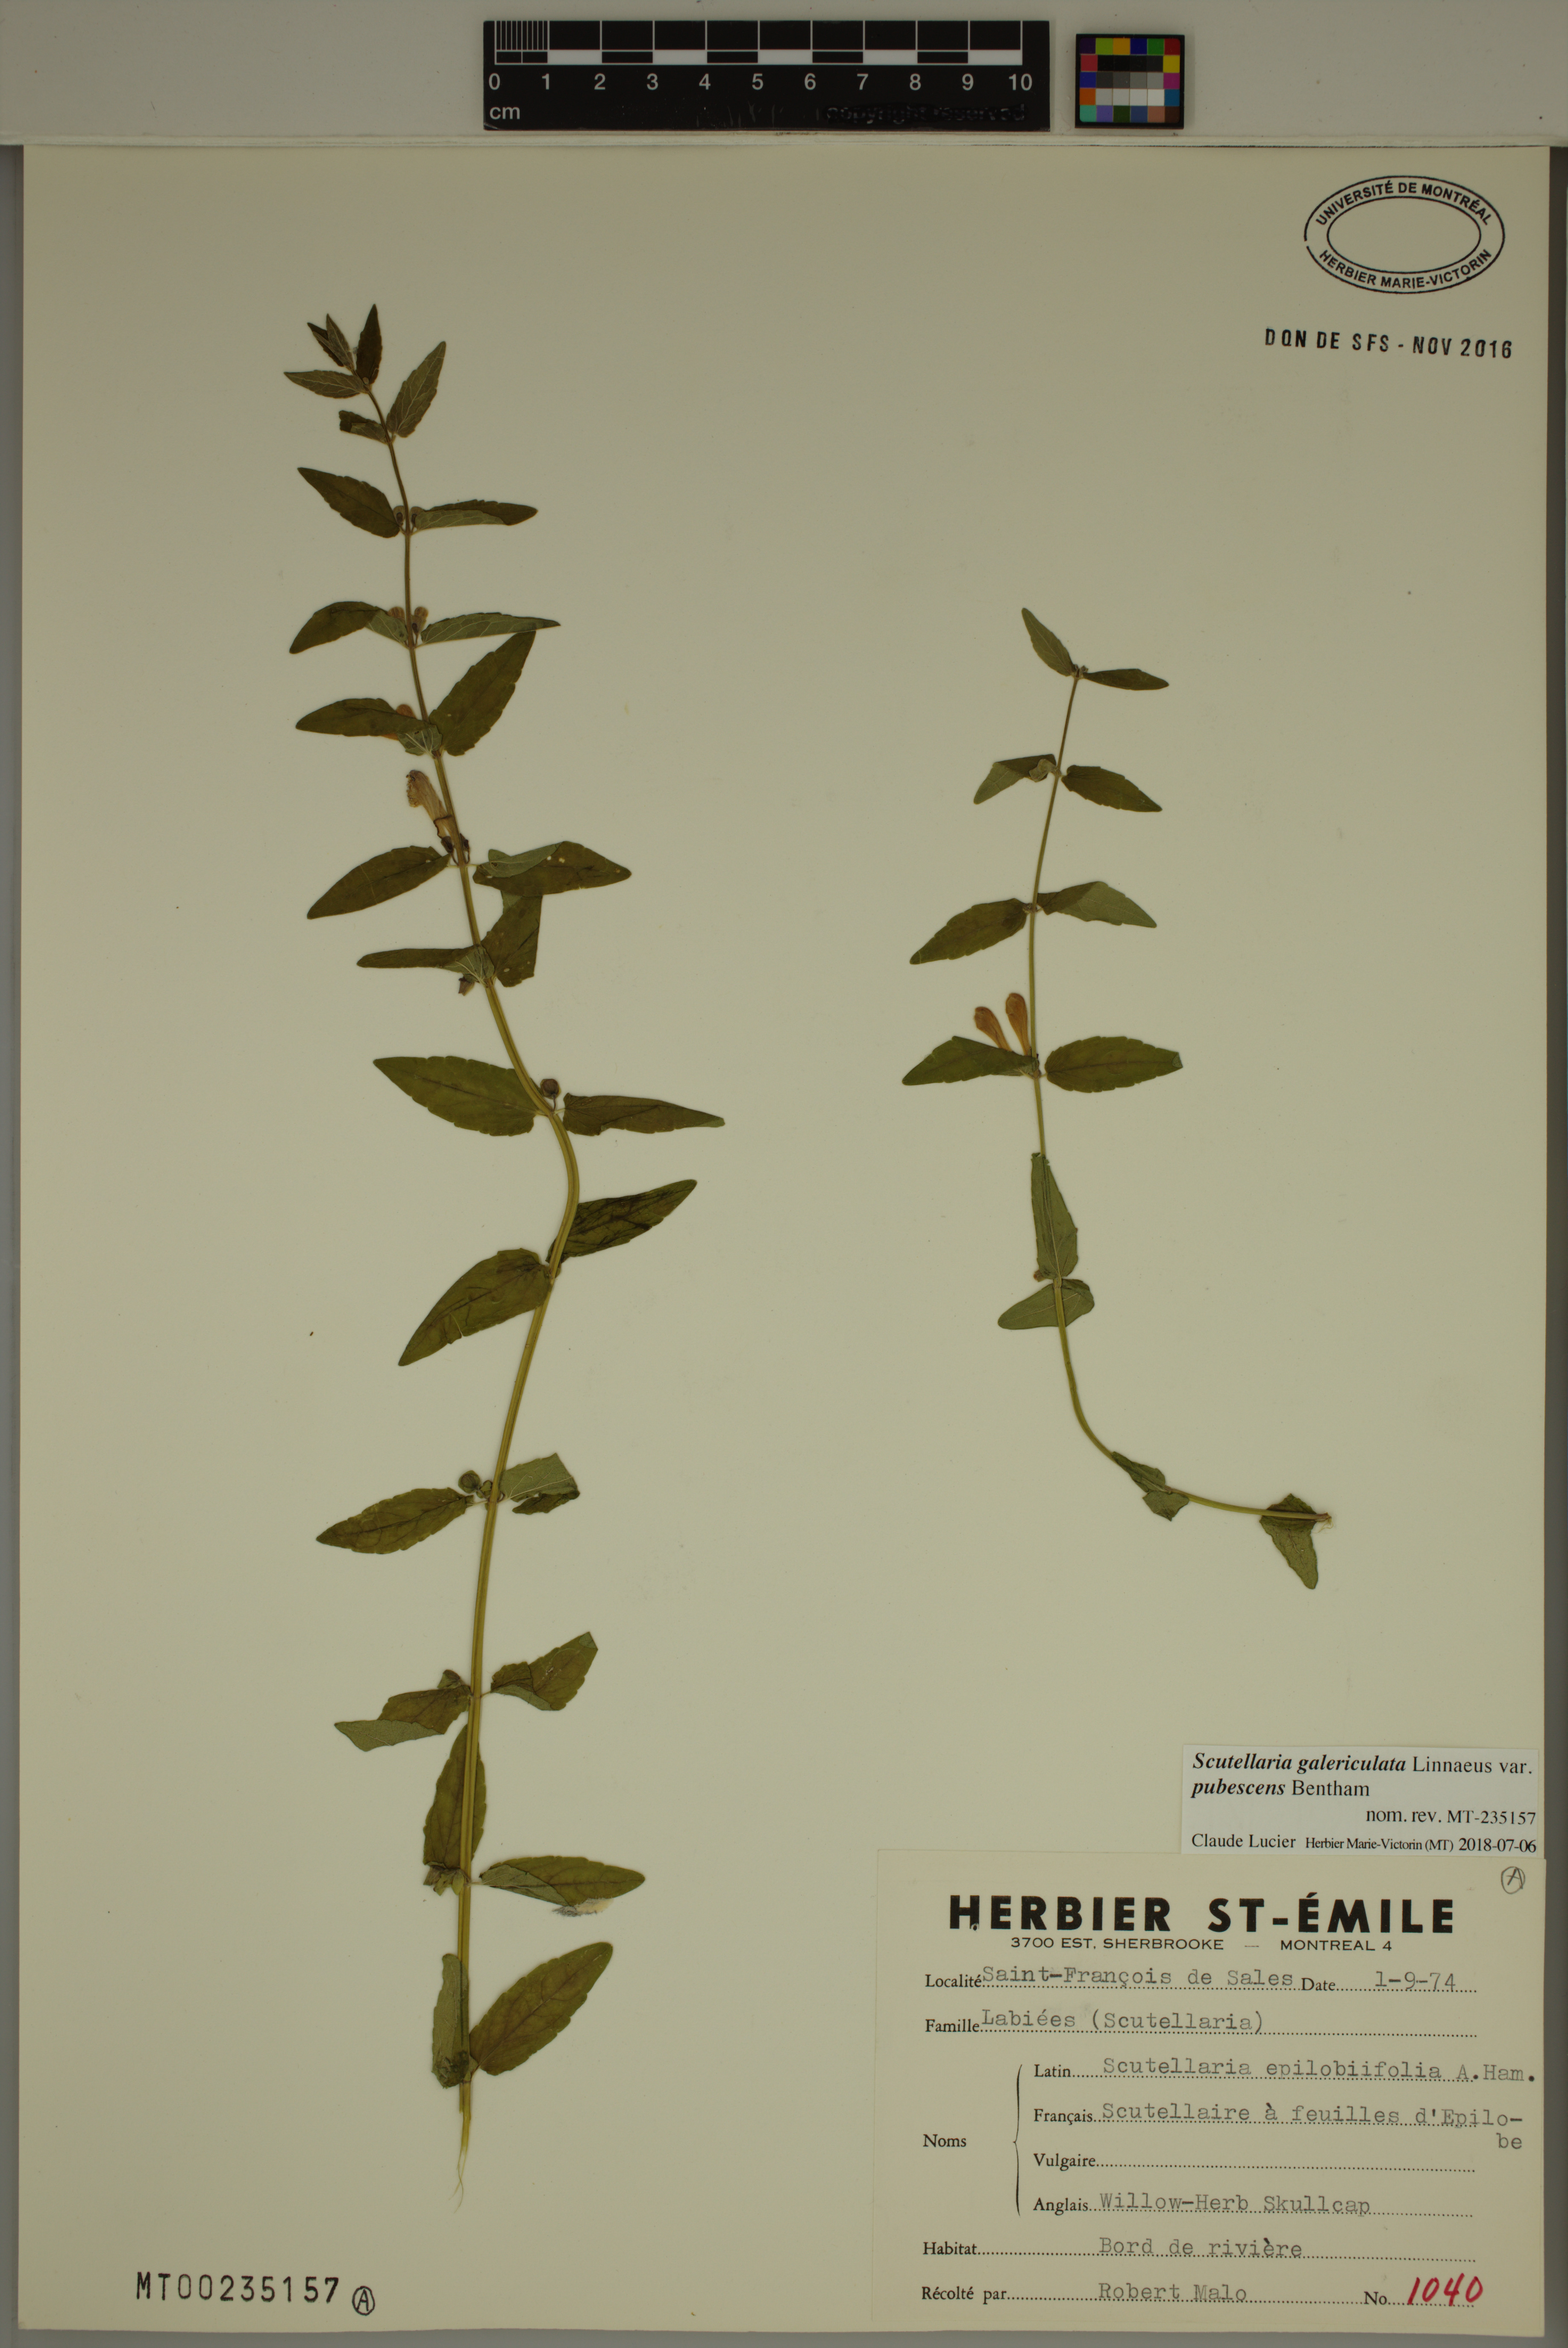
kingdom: Plantae
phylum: Tracheophyta
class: Magnoliopsida
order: Lamiales
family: Lamiaceae
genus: Scutellaria
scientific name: Scutellaria nicholsonii
